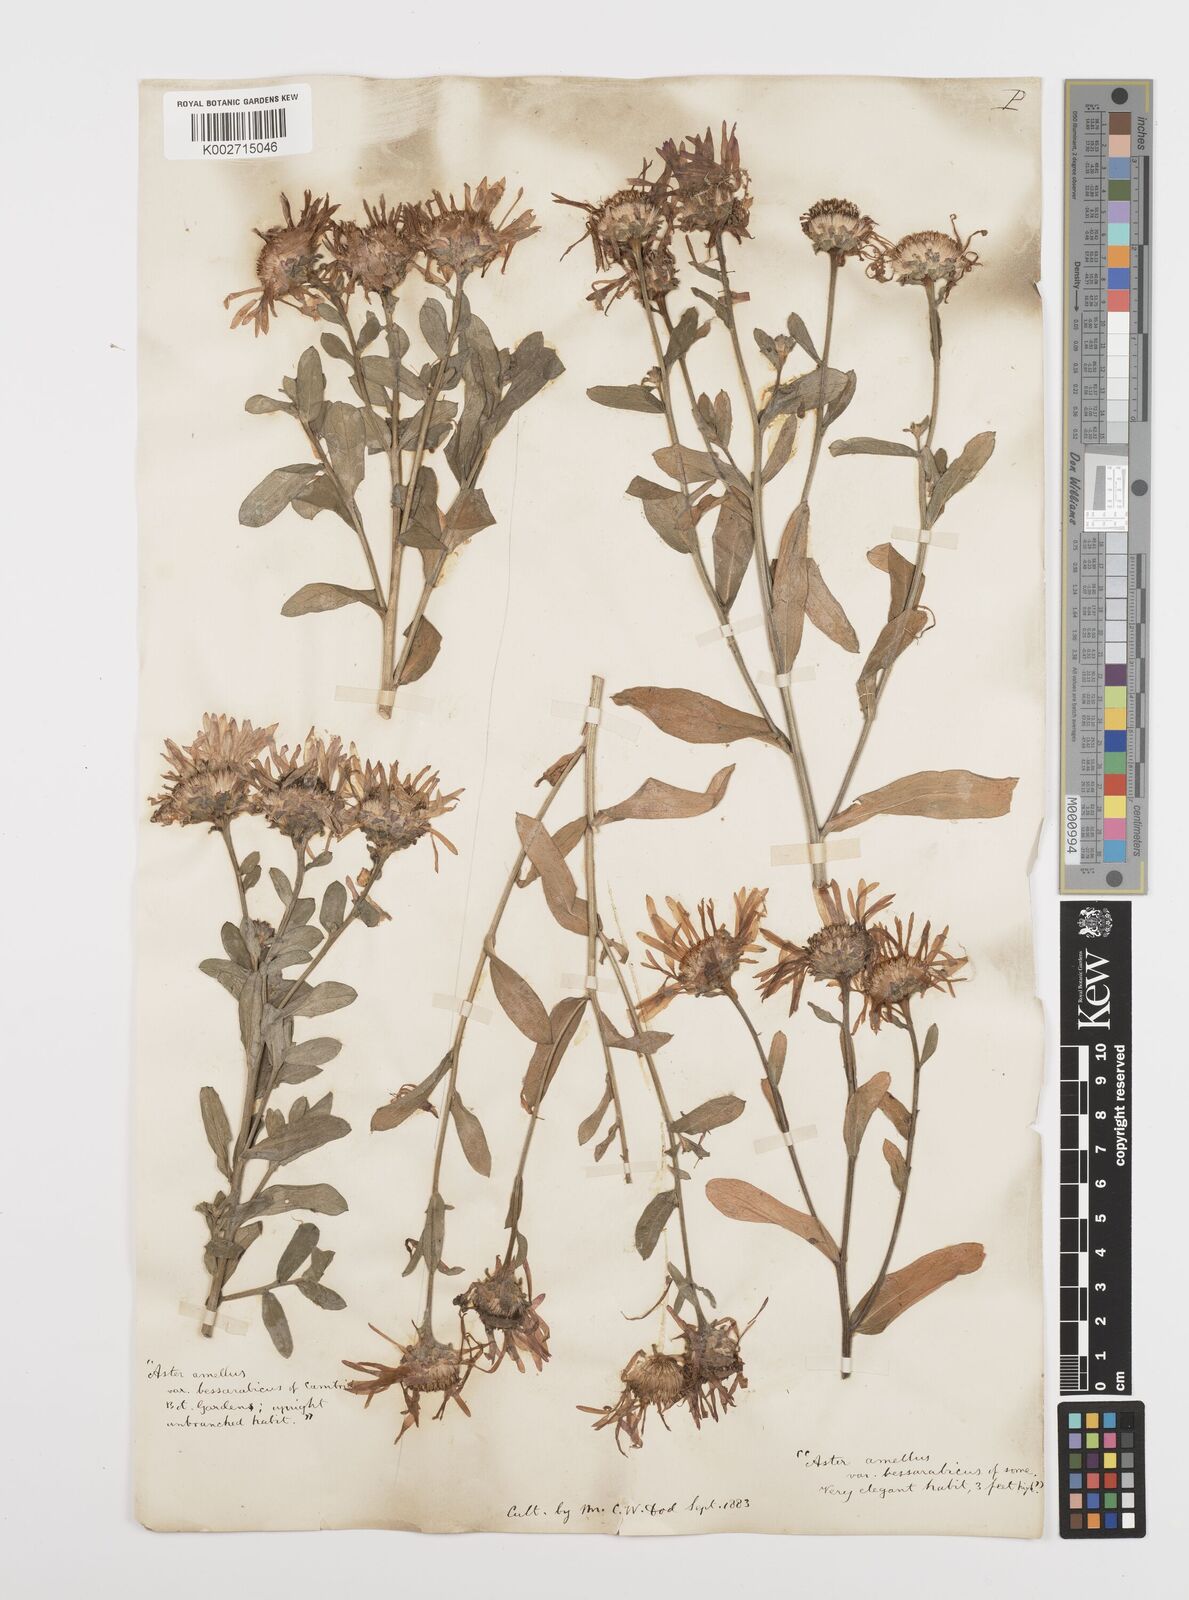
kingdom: Plantae
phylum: Tracheophyta
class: Magnoliopsida
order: Asterales
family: Asteraceae
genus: Aster
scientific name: Aster amellus
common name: European michaelmas daisy
